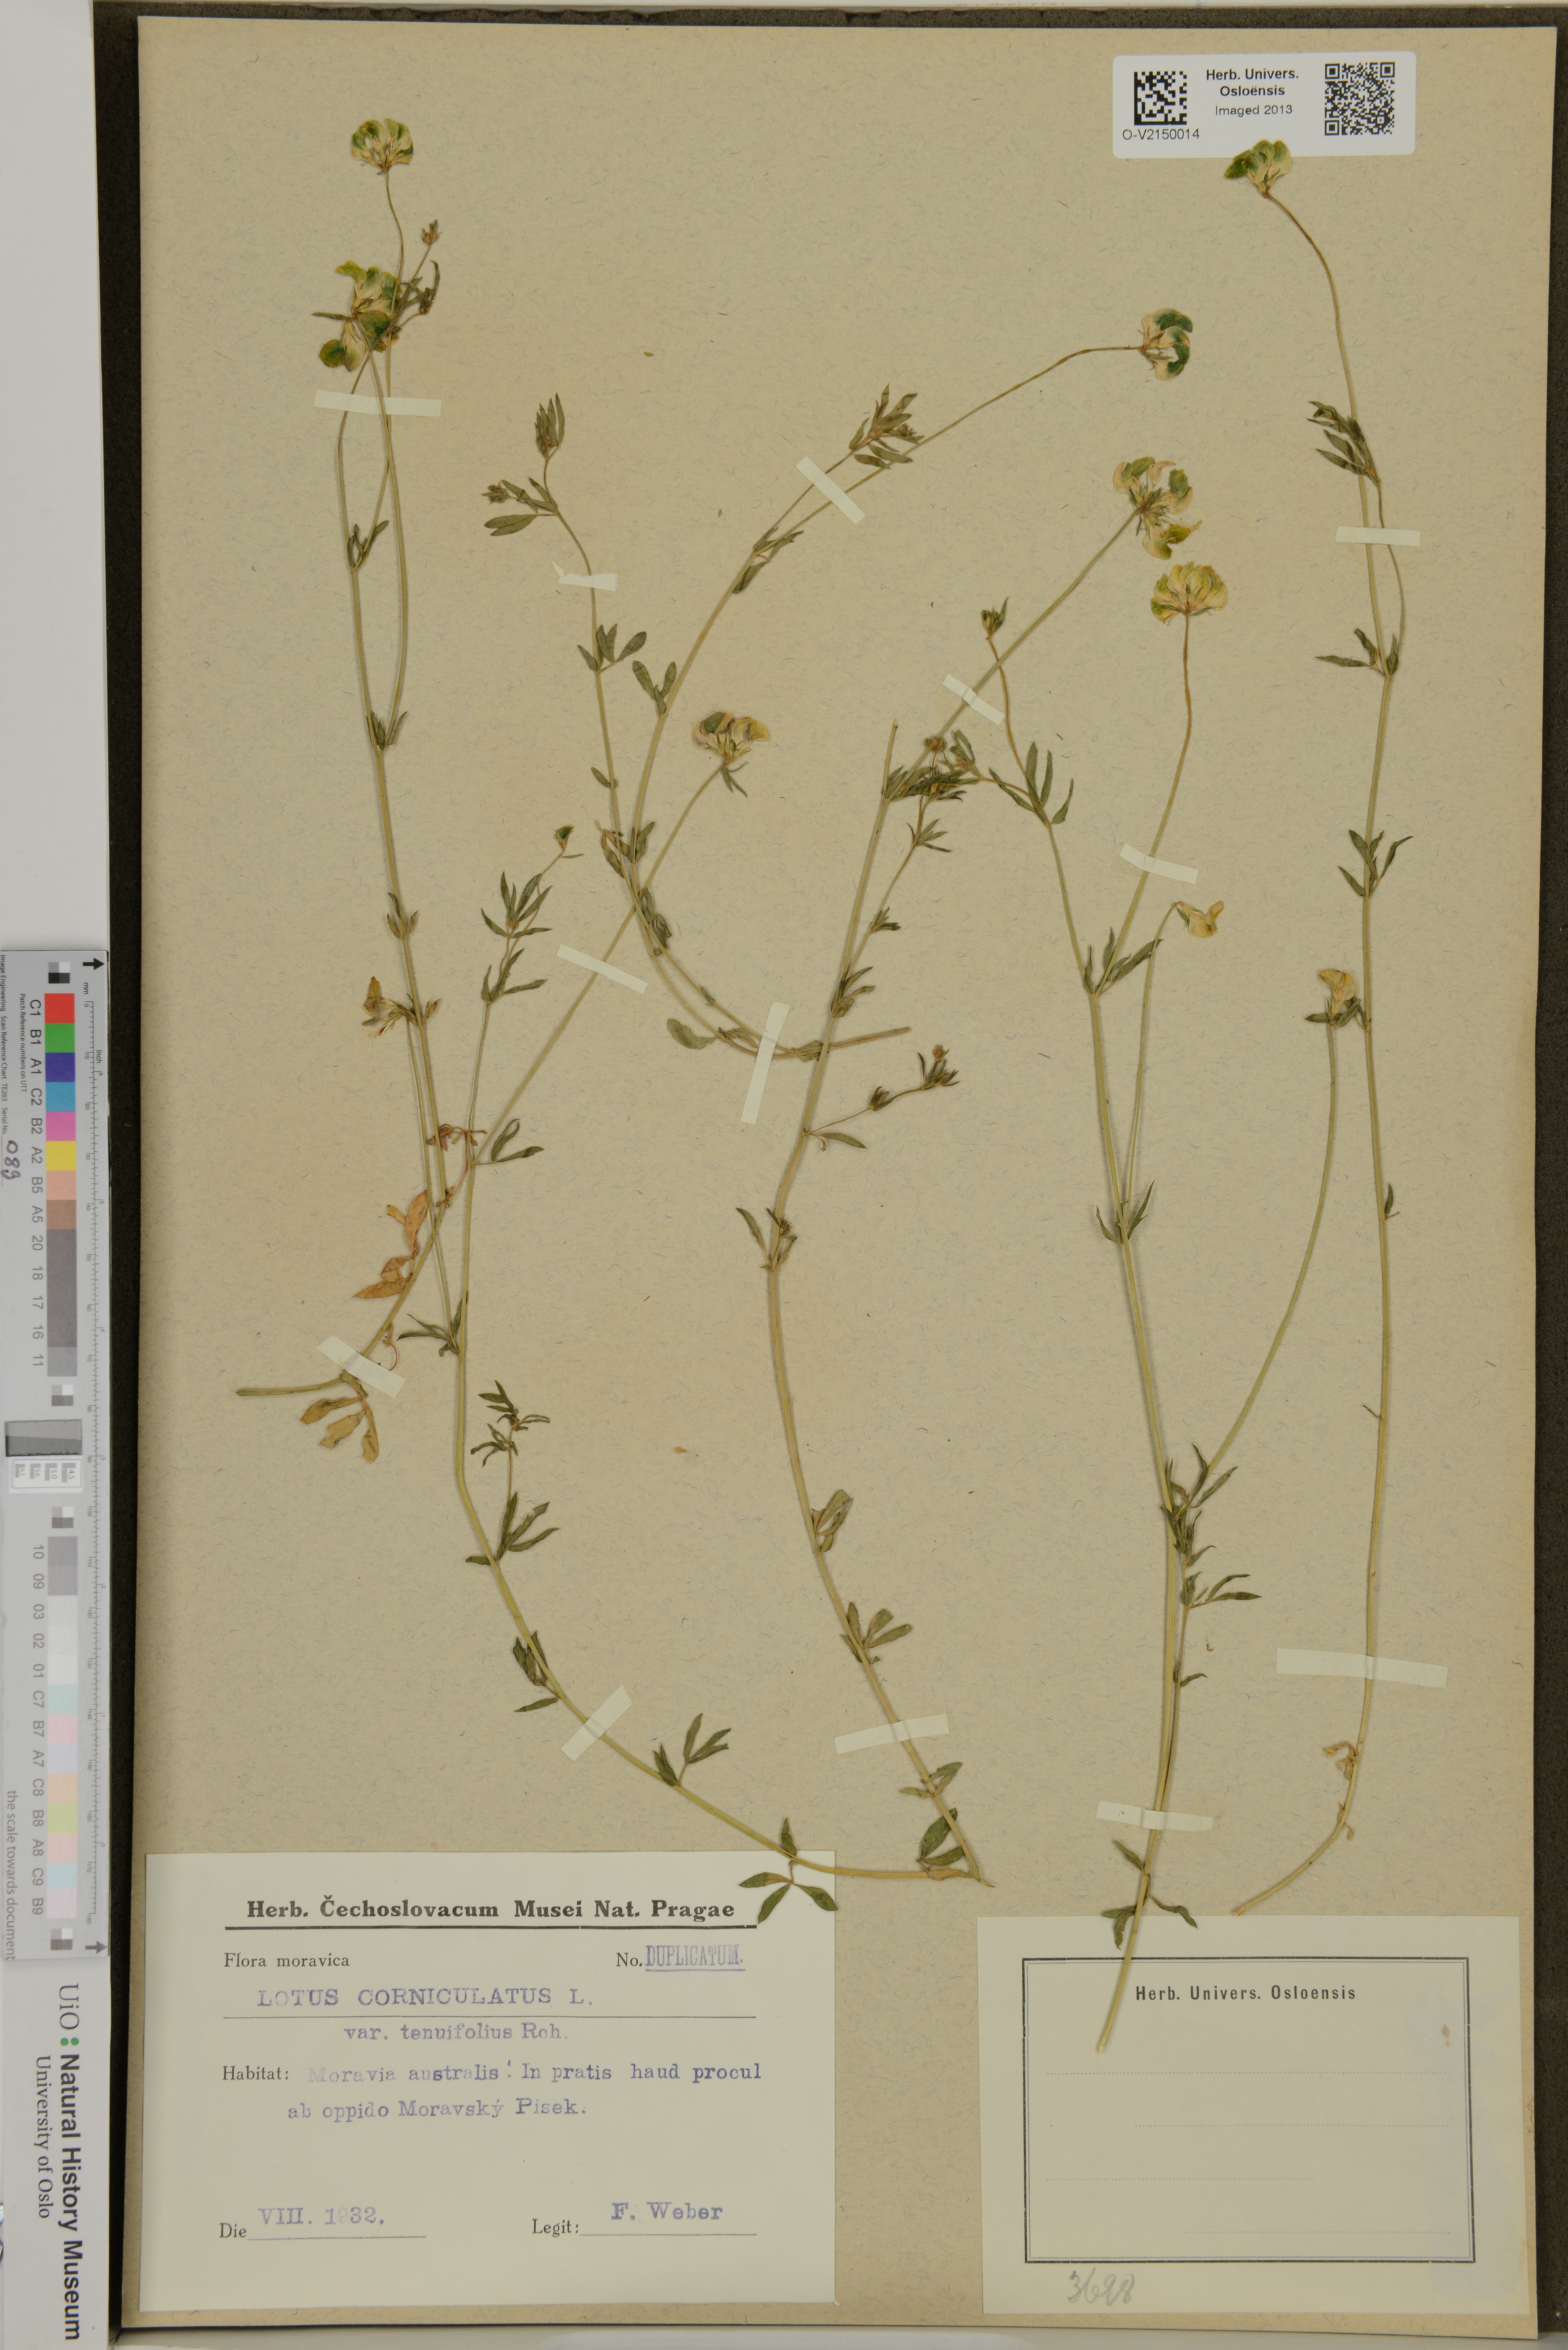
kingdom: Plantae
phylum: Tracheophyta
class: Magnoliopsida
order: Fabales
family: Fabaceae
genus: Lotus
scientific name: Lotus corniculatus
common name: Common bird's-foot-trefoil
